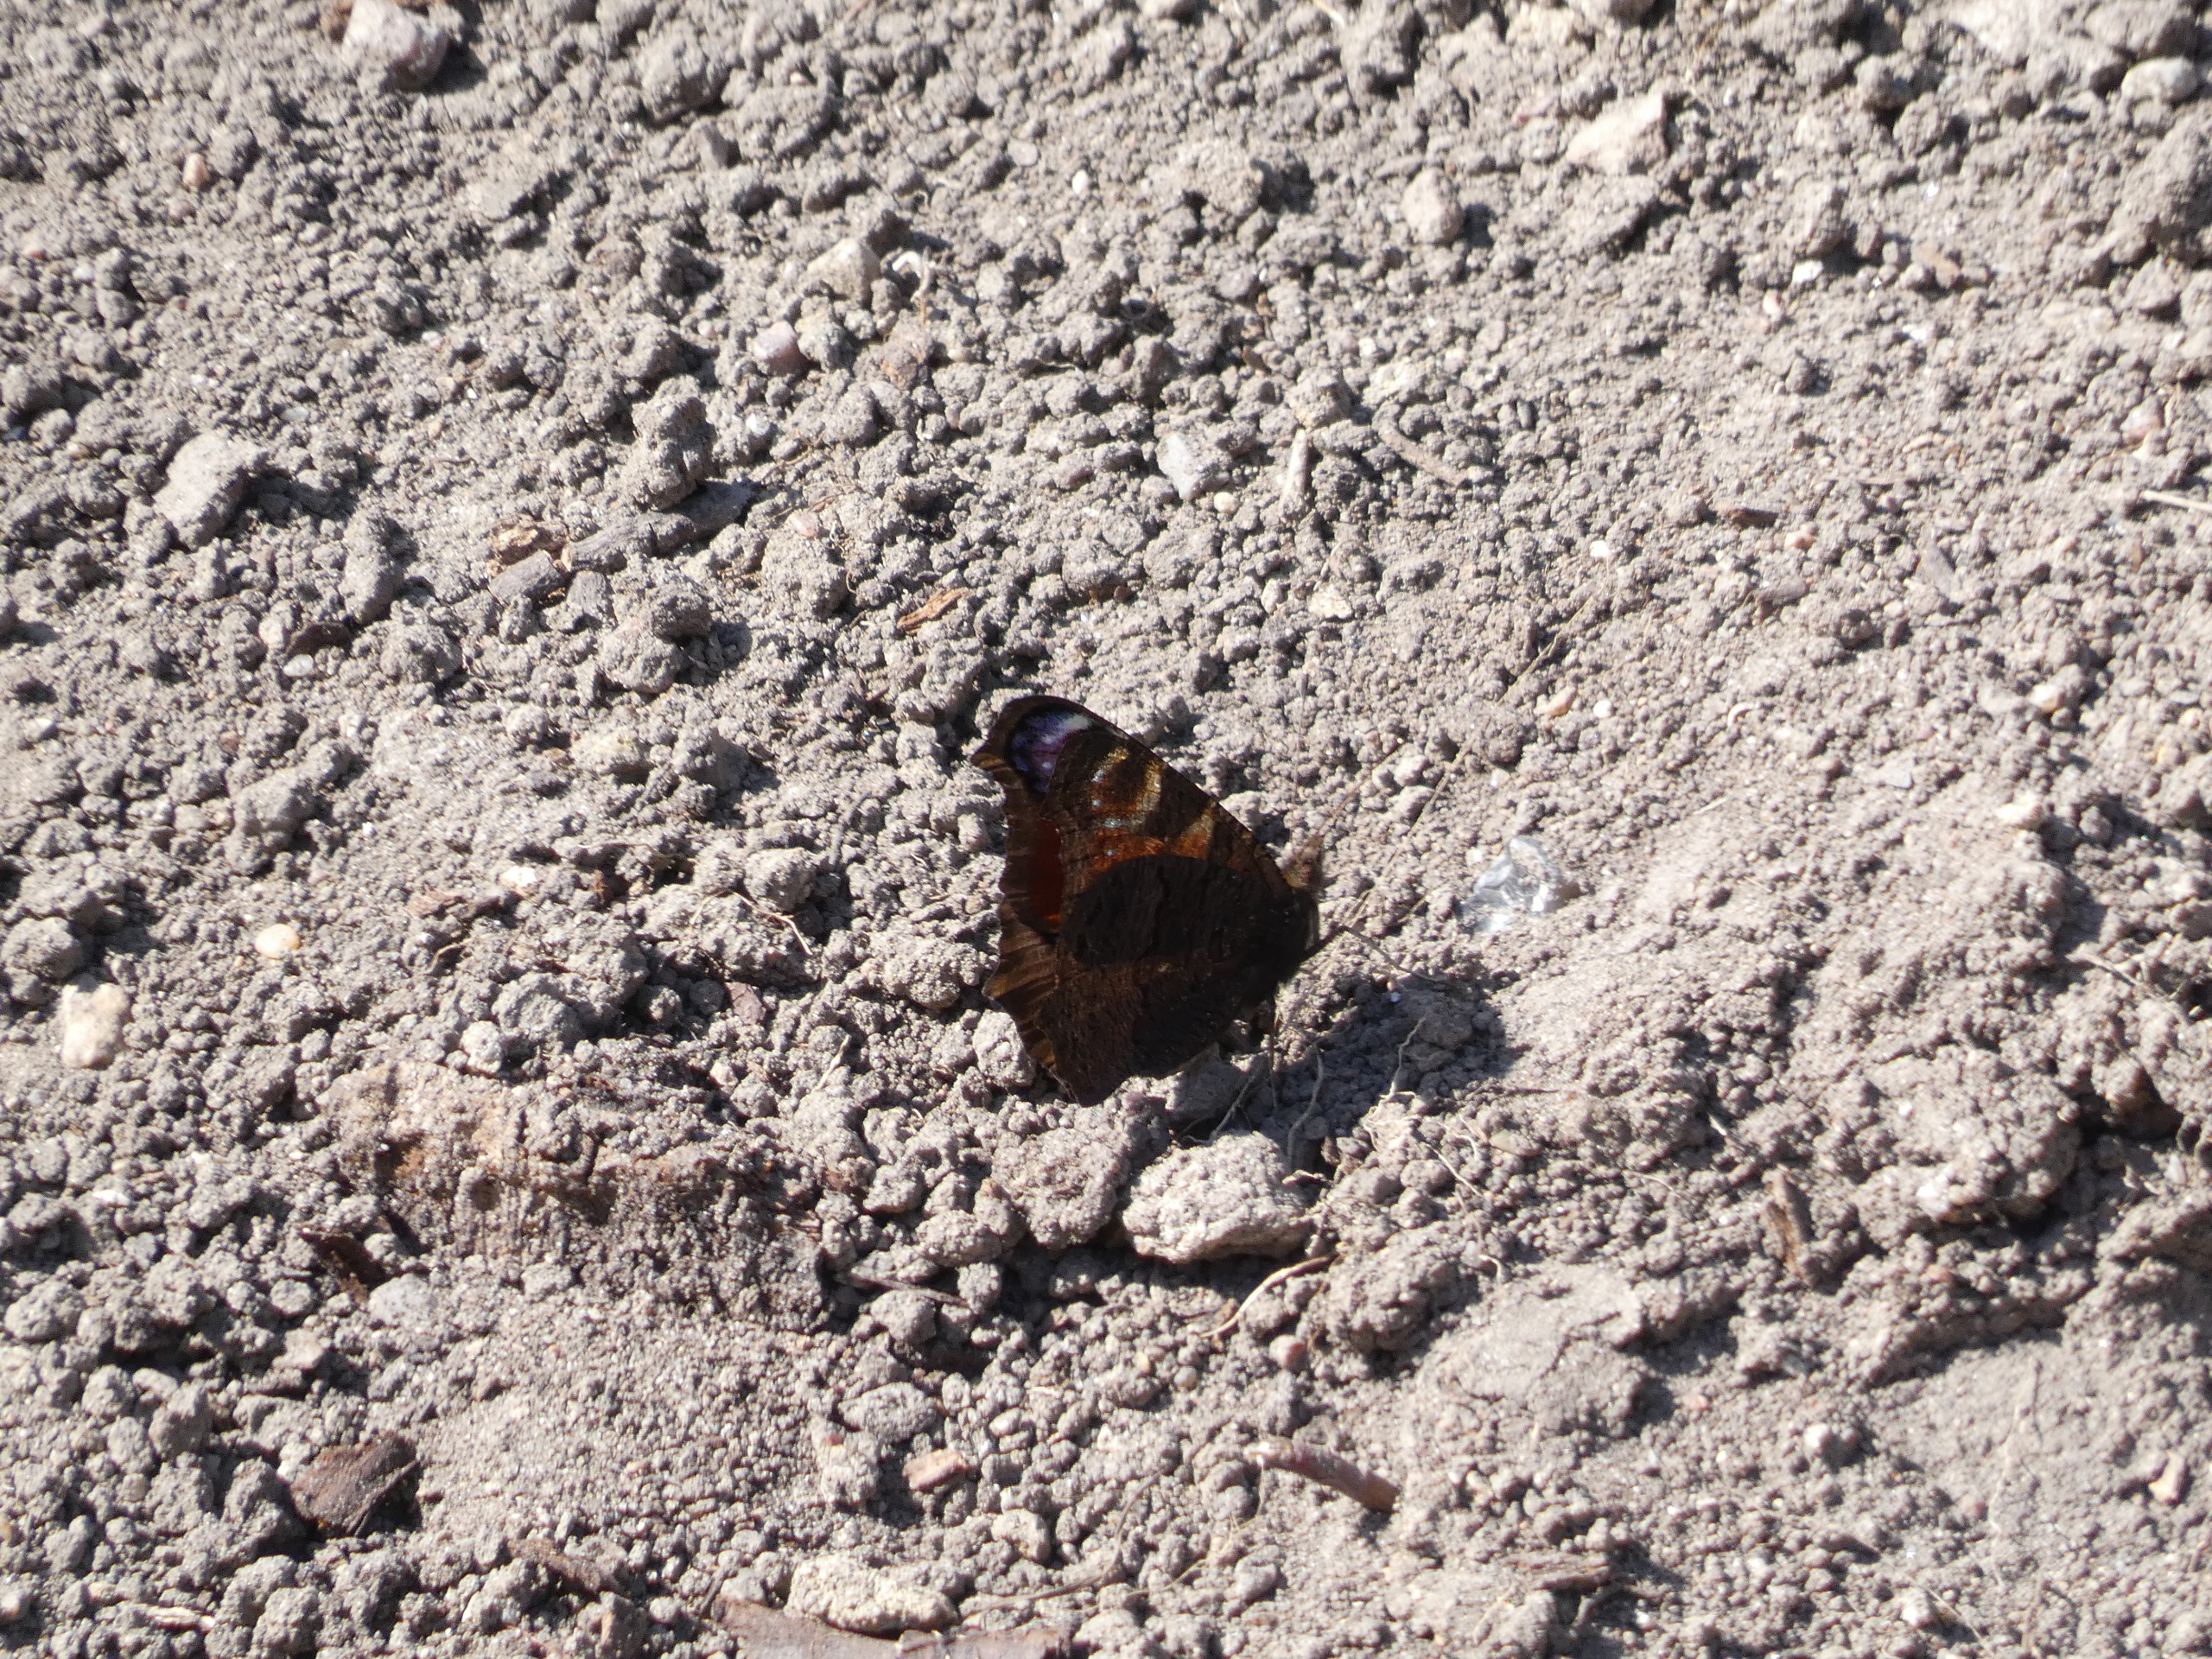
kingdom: Animalia
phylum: Arthropoda
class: Insecta
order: Lepidoptera
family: Nymphalidae
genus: Aglais
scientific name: Aglais io
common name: Dagpåfugleøje
